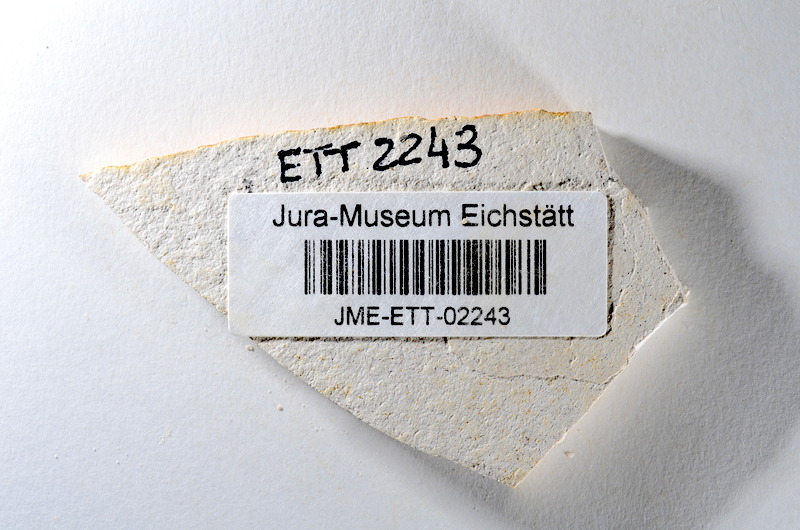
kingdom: Animalia
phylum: Chordata
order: Salmoniformes
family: Orthogonikleithridae
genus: Orthogonikleithrus
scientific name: Orthogonikleithrus hoelli
